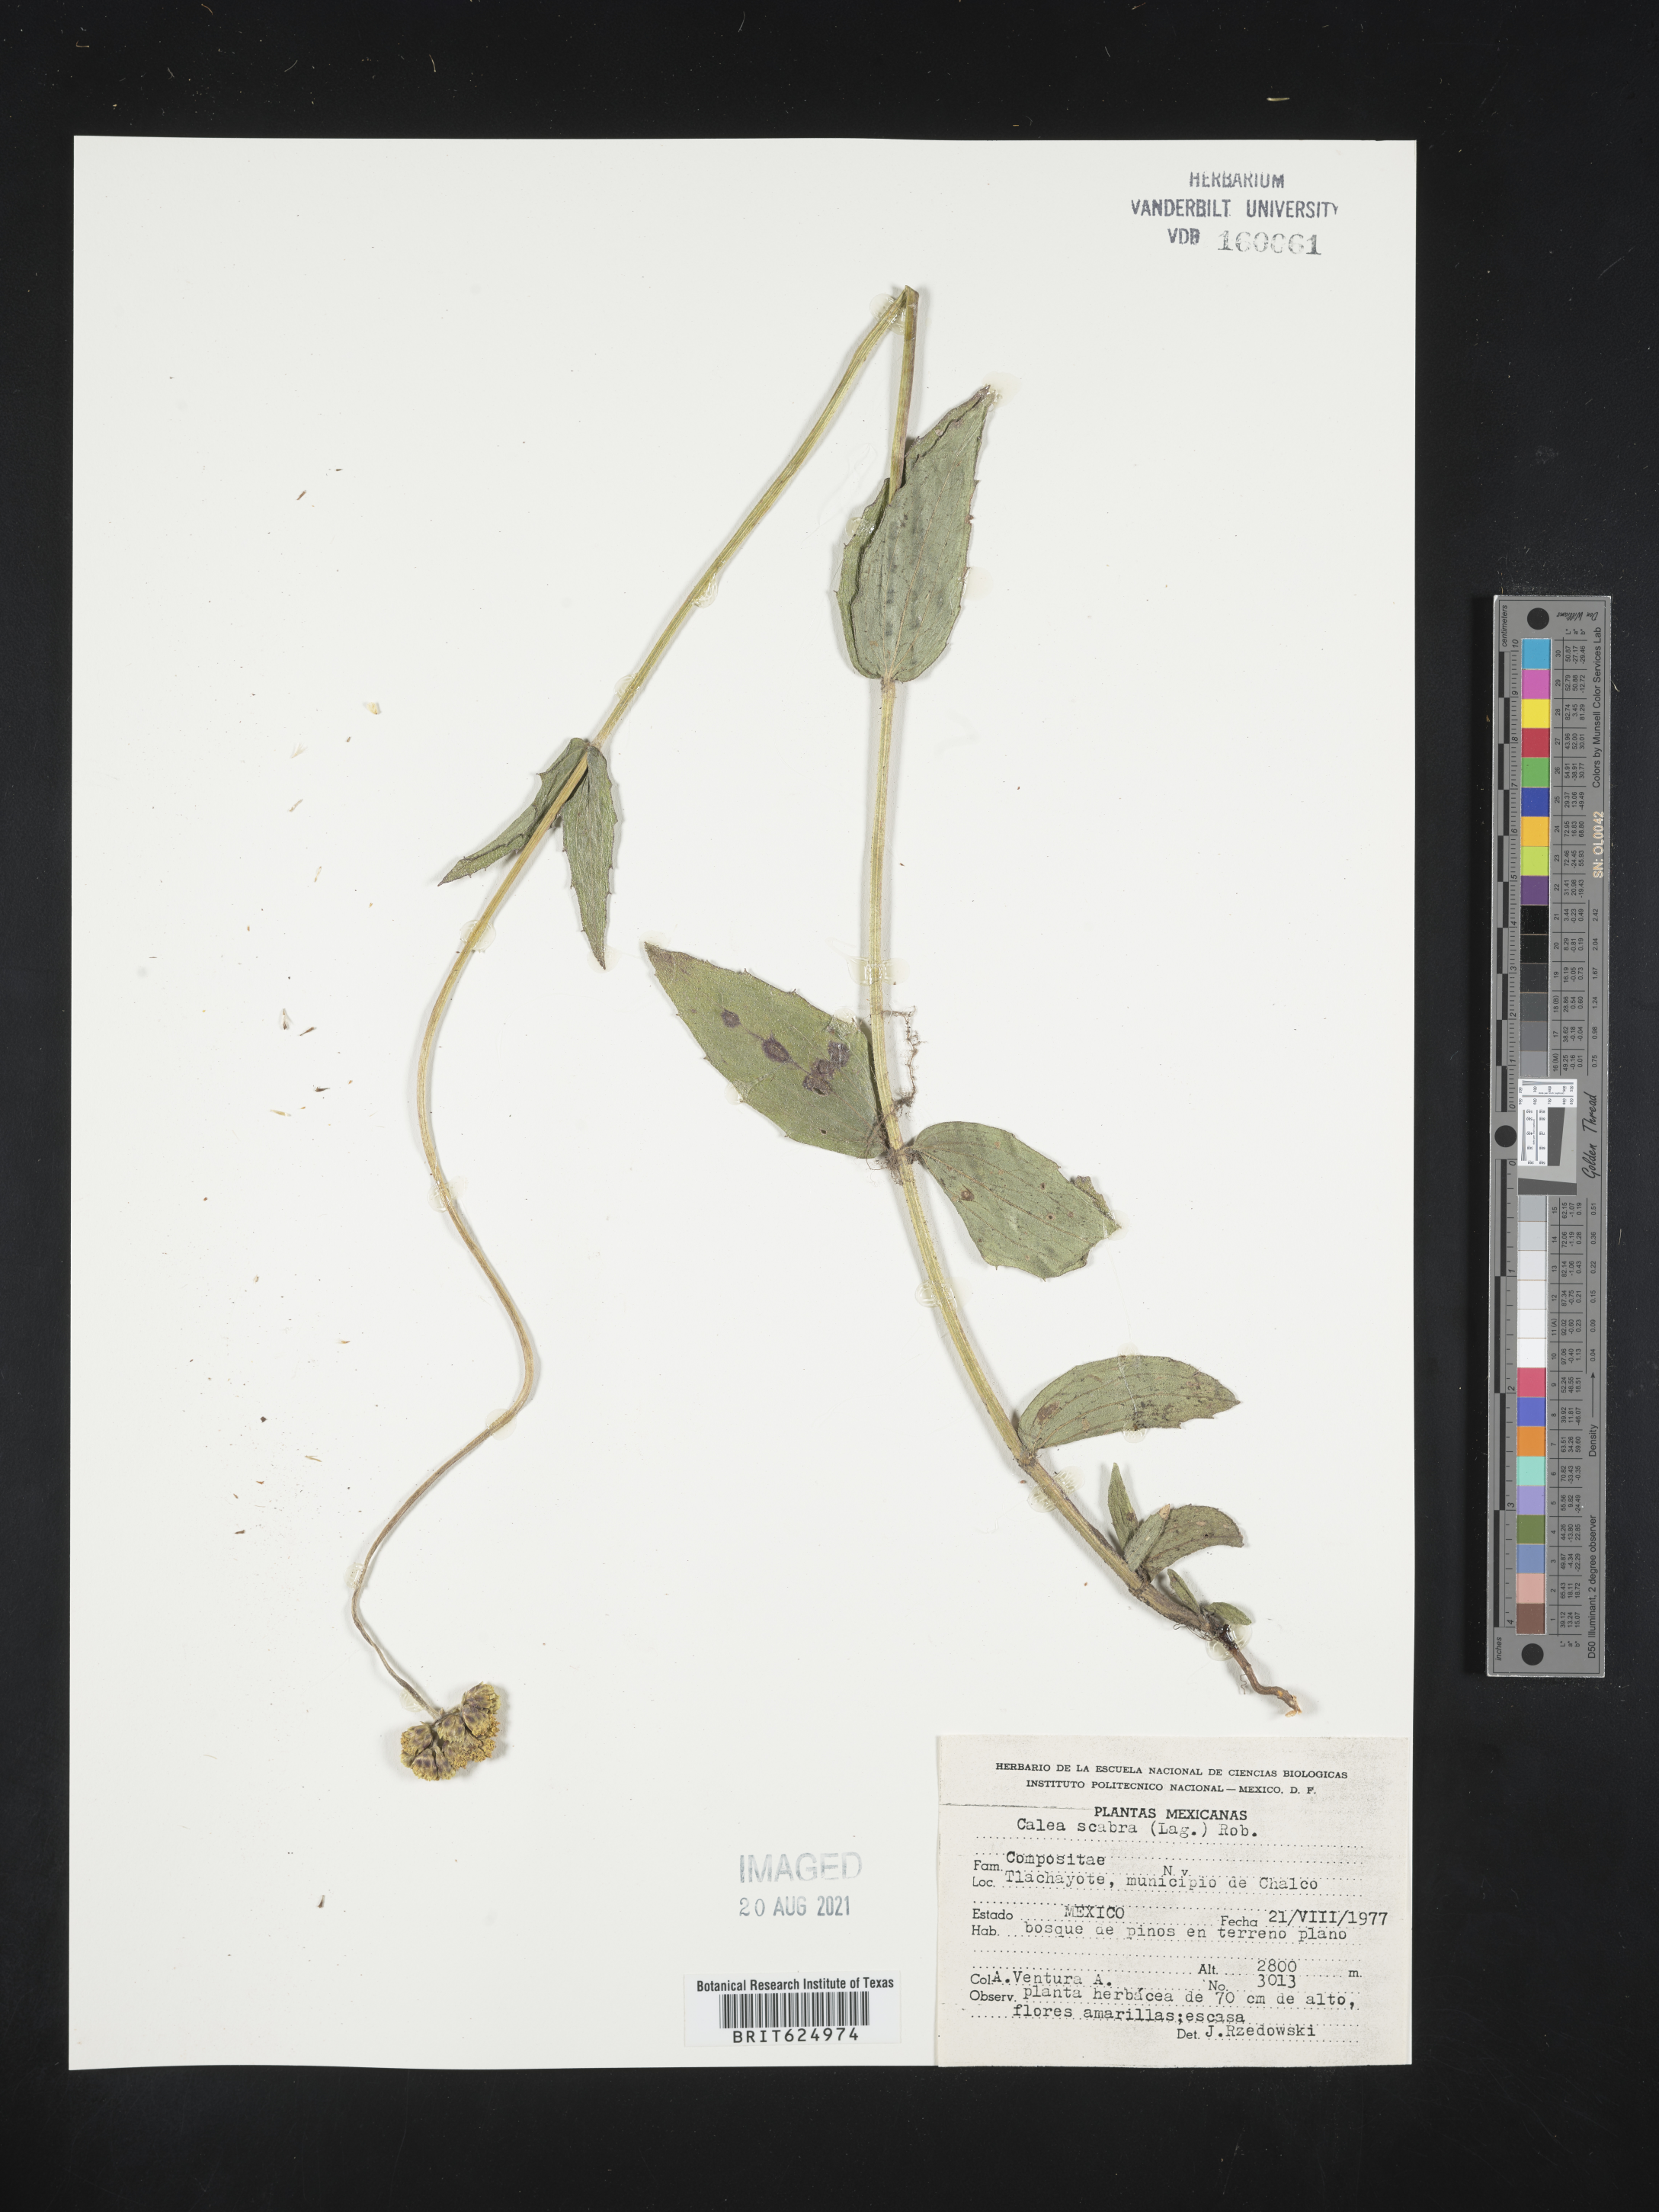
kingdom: Plantae
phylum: Tracheophyta
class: Magnoliopsida
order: Asterales
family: Asteraceae
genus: Alloispermum
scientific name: Alloispermum scabrum
